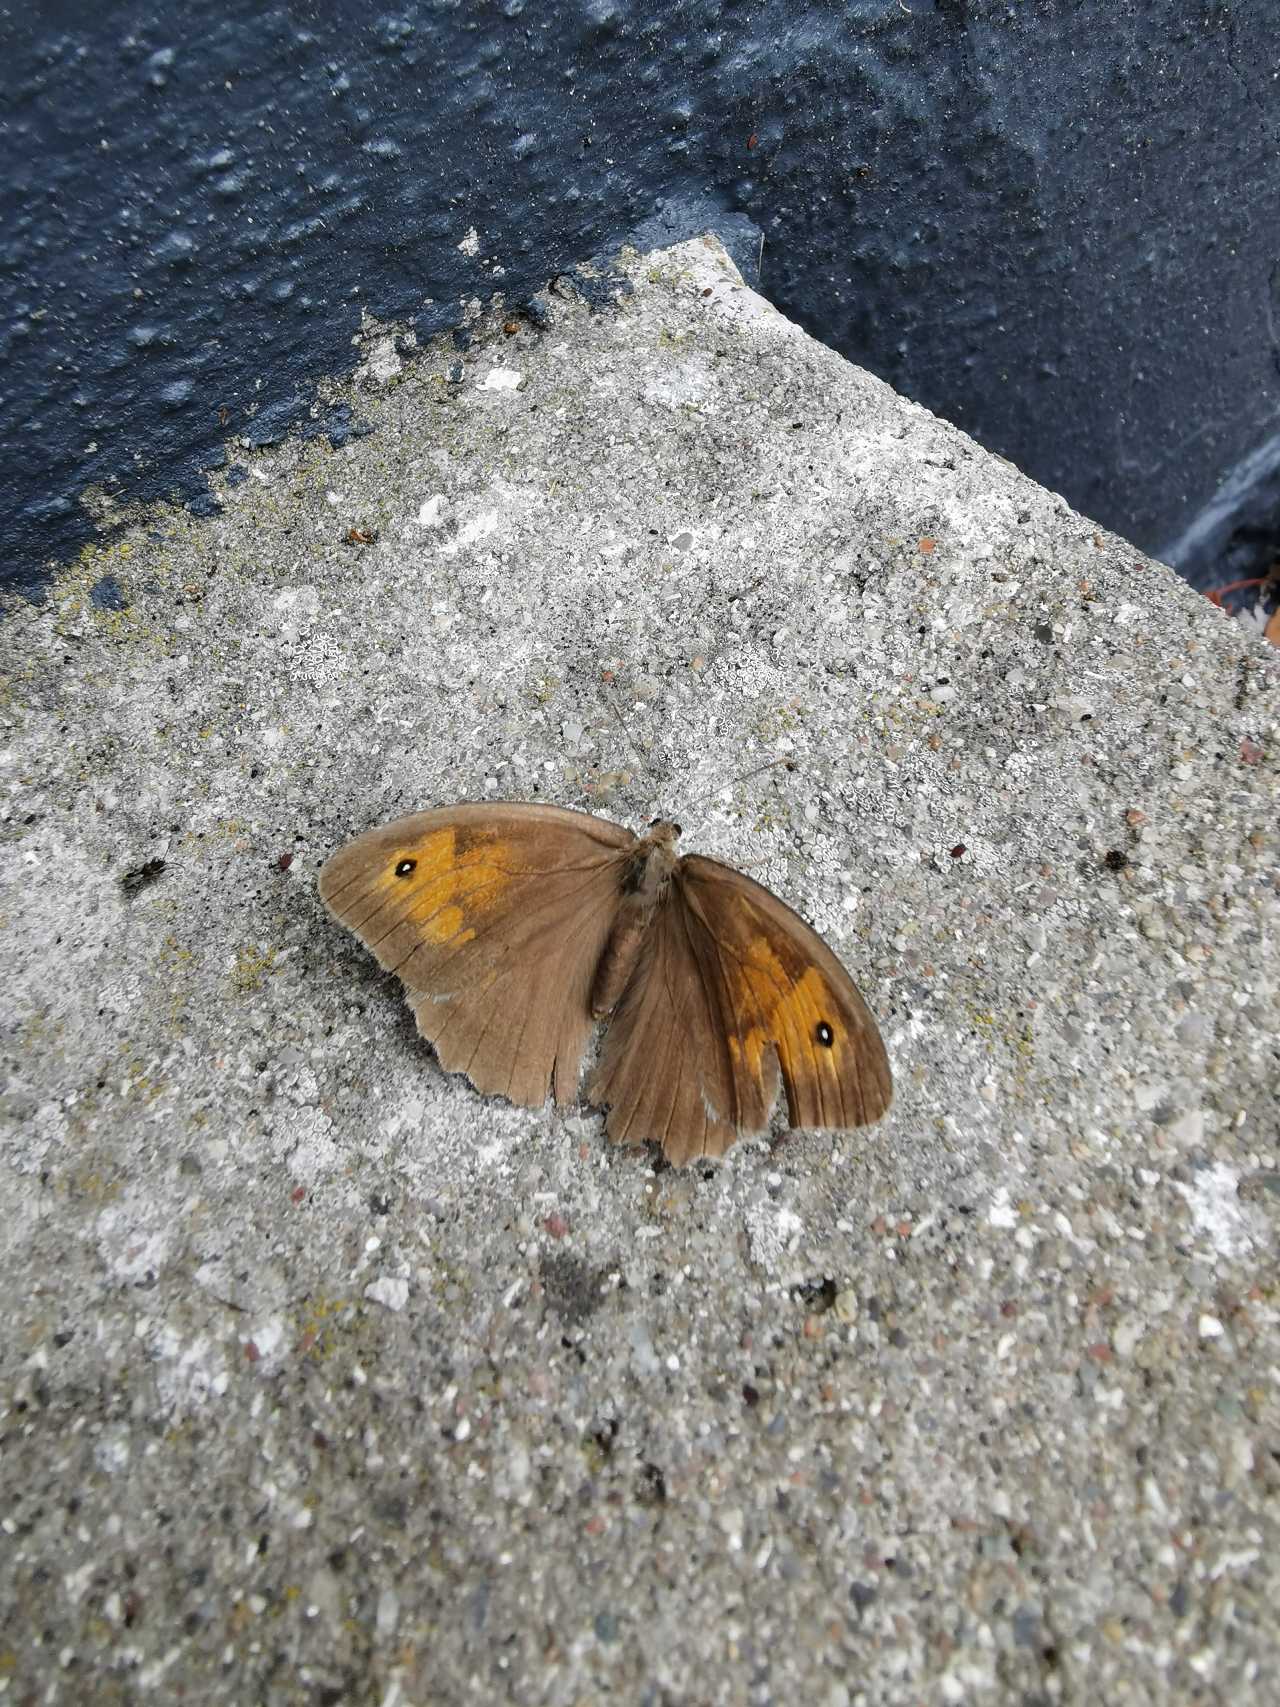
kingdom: Animalia
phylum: Arthropoda
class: Insecta
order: Lepidoptera
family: Nymphalidae
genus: Maniola
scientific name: Maniola jurtina
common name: Græsrandøje
